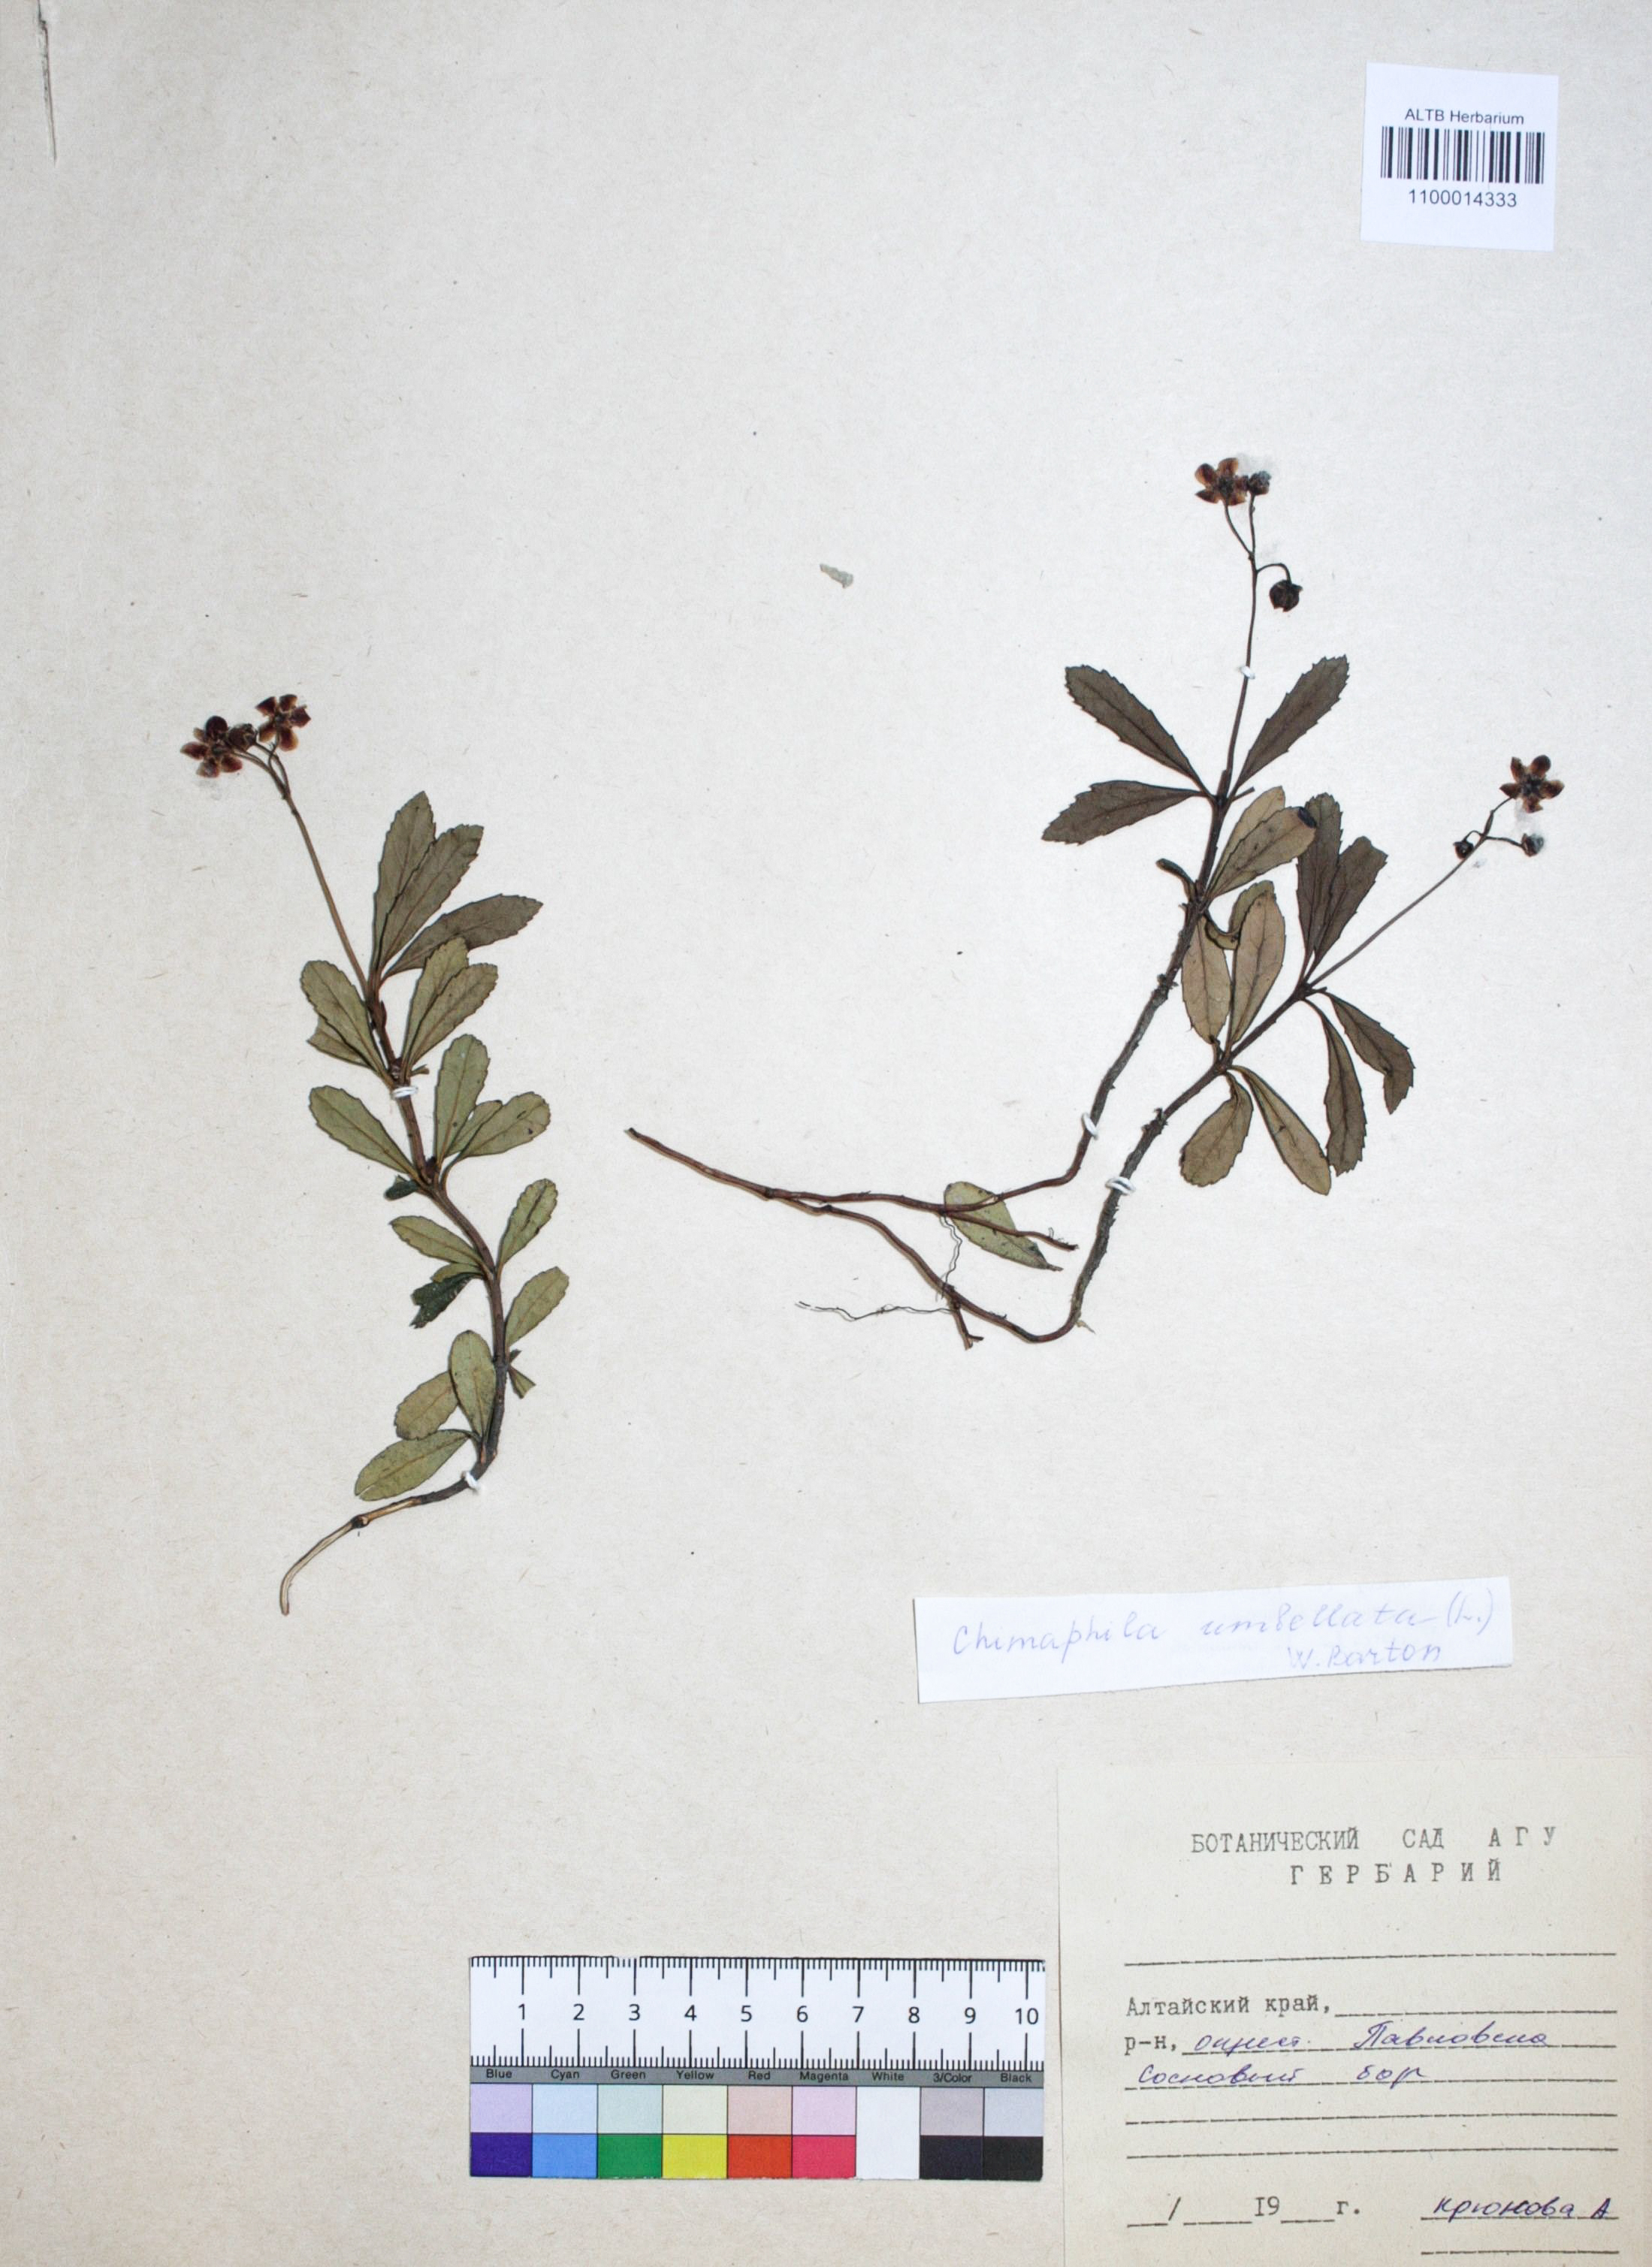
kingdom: Plantae
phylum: Tracheophyta
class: Magnoliopsida
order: Ericales
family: Ericaceae
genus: Chimaphila
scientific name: Chimaphila umbellata
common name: Pipsissewa
